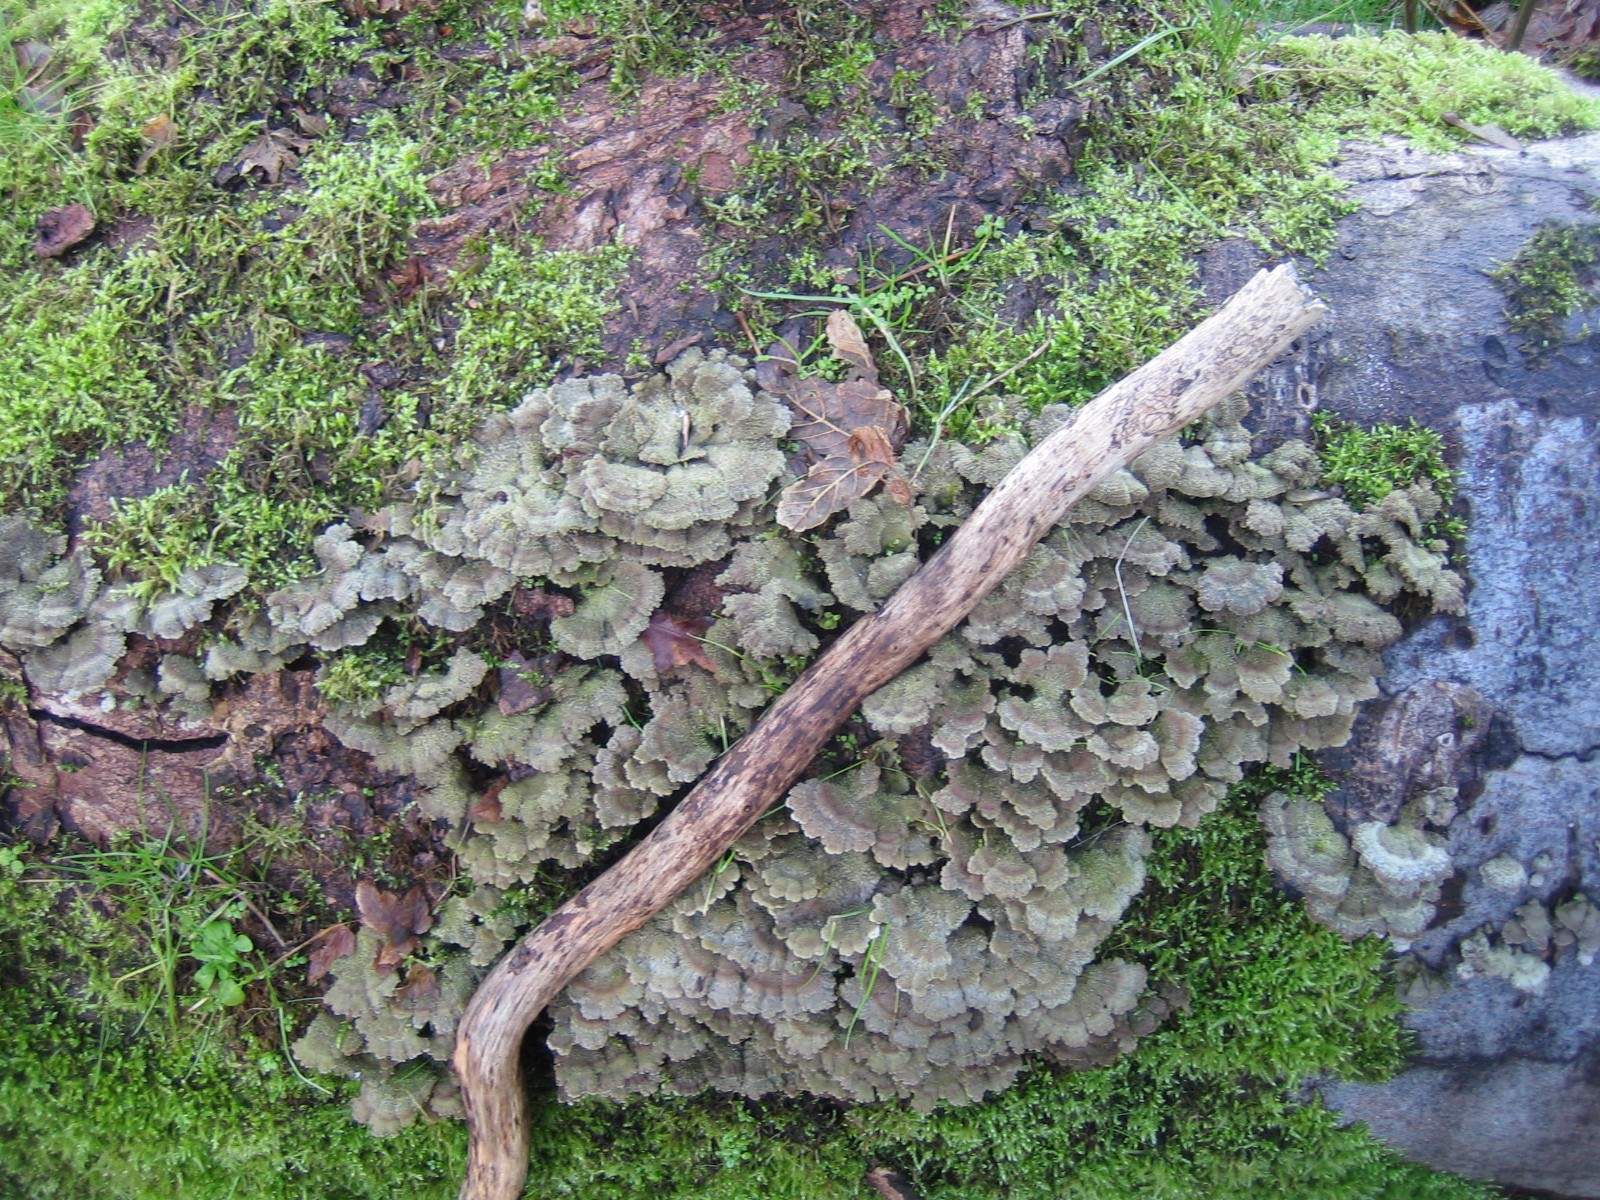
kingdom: Fungi
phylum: Basidiomycota
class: Agaricomycetes
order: Agaricales
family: Schizophyllaceae
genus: Schizophyllum
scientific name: Schizophyllum commune
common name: kløvblad
